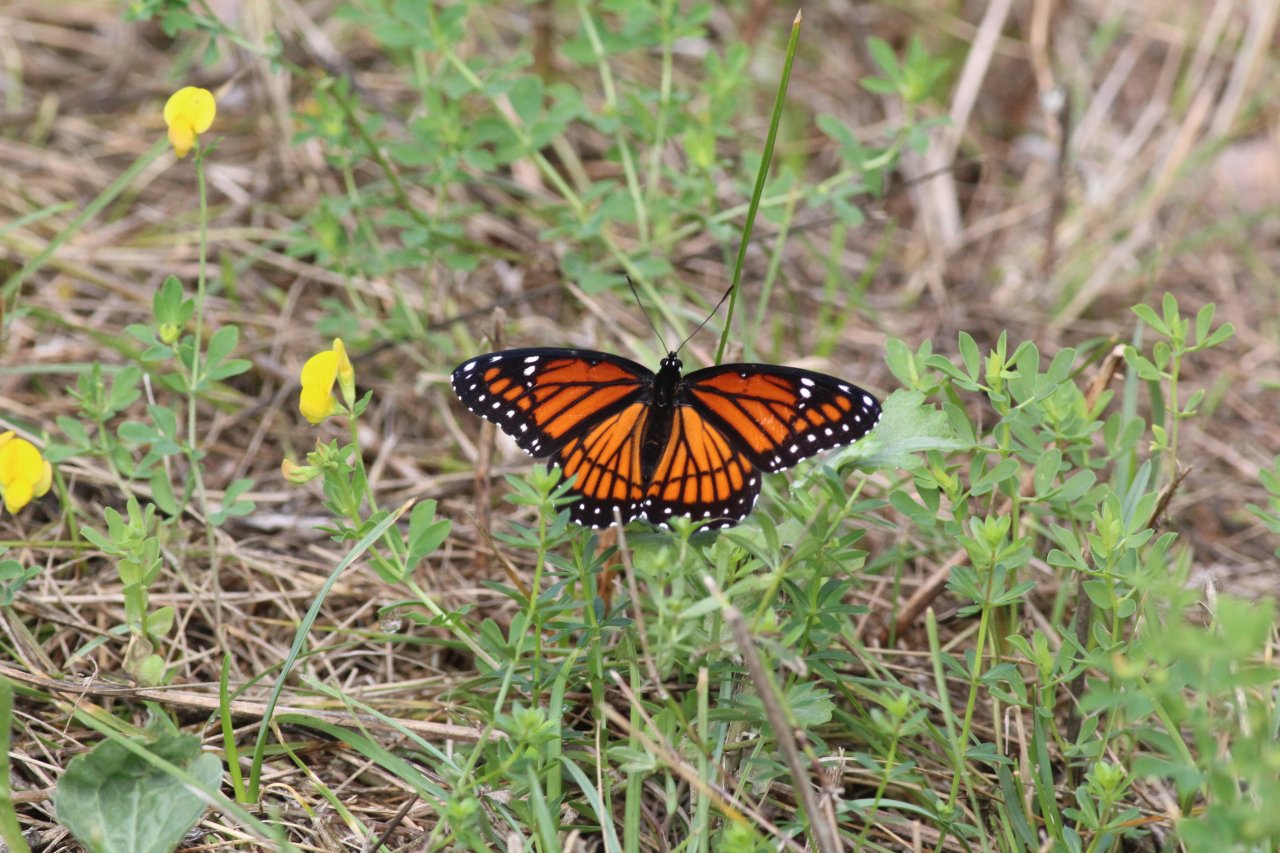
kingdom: Animalia
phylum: Arthropoda
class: Insecta
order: Lepidoptera
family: Nymphalidae
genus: Limenitis
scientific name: Limenitis archippus
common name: Viceroy
